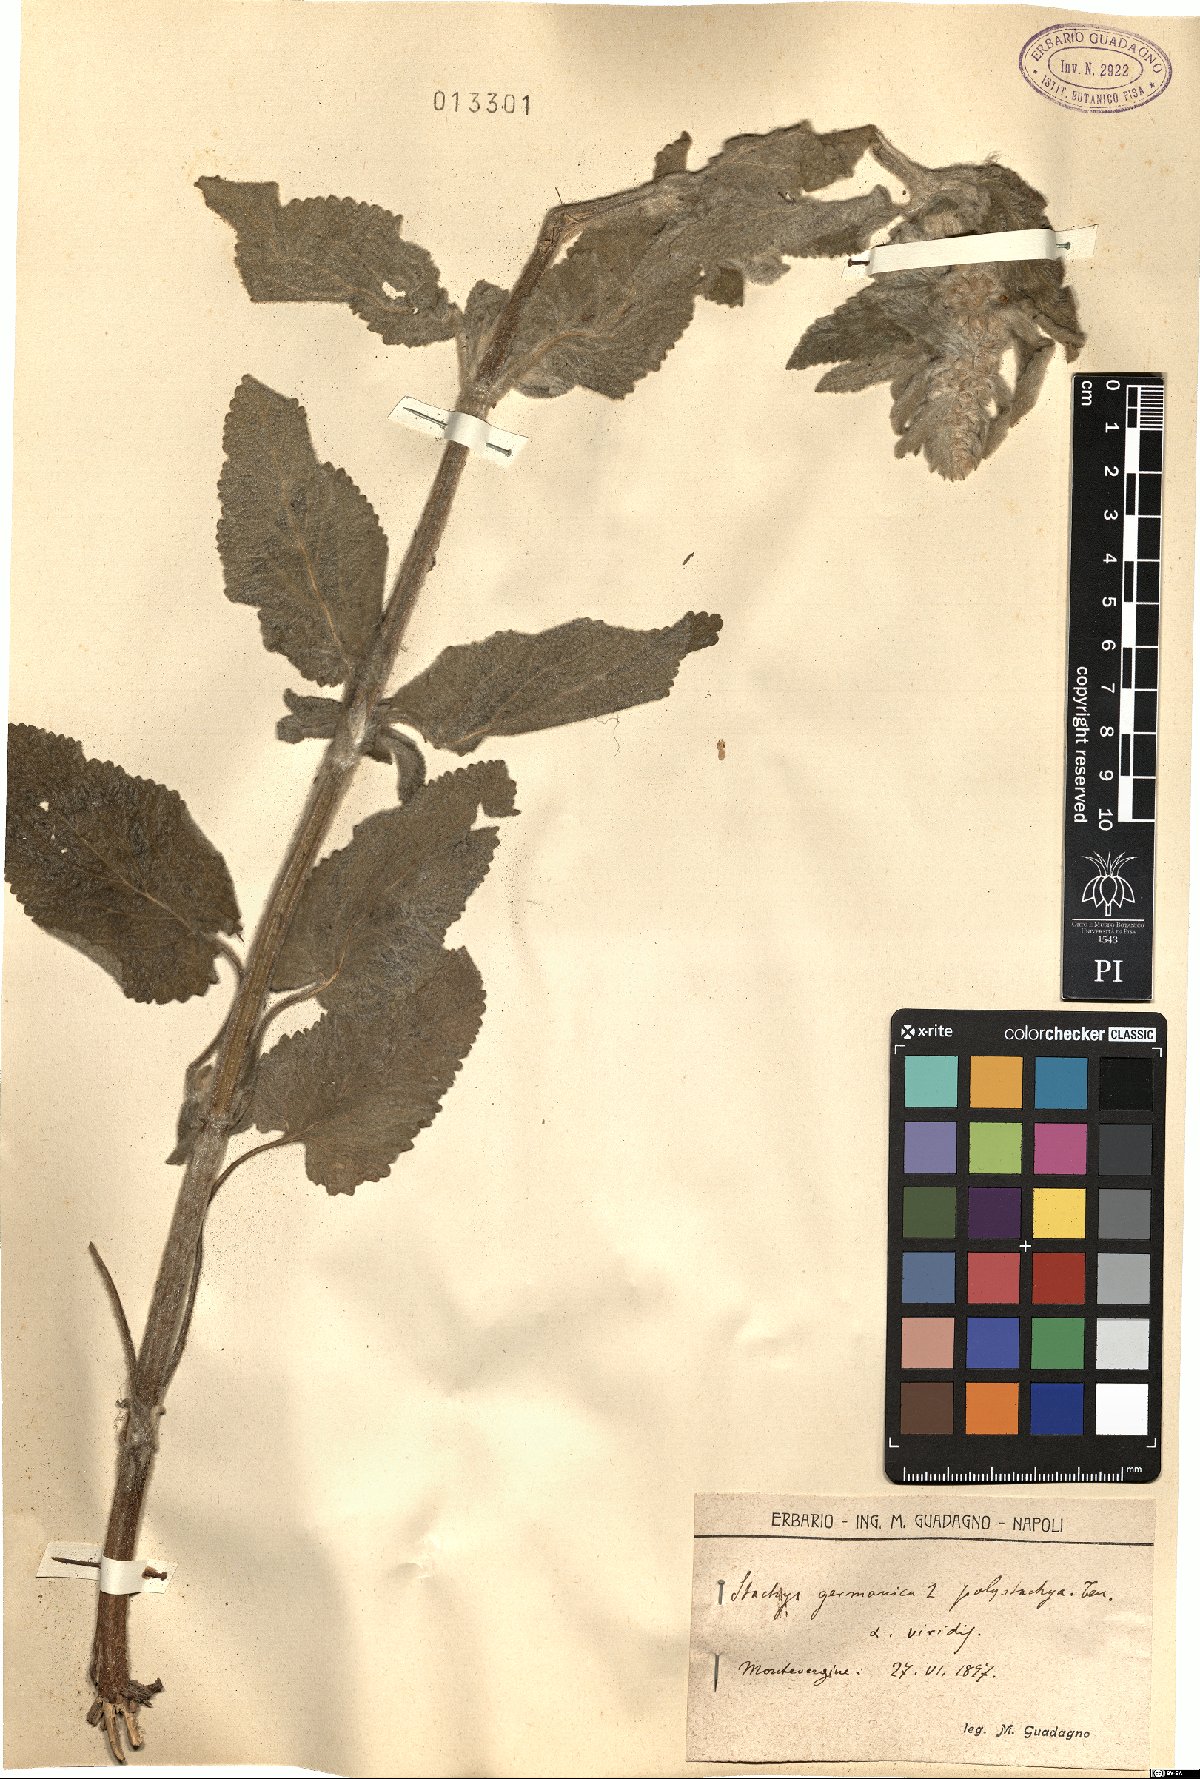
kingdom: Plantae
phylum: Tracheophyta
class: Magnoliopsida
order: Lamiales
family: Lamiaceae
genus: Stachys
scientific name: Stachys germanica
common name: Downy woundwort
